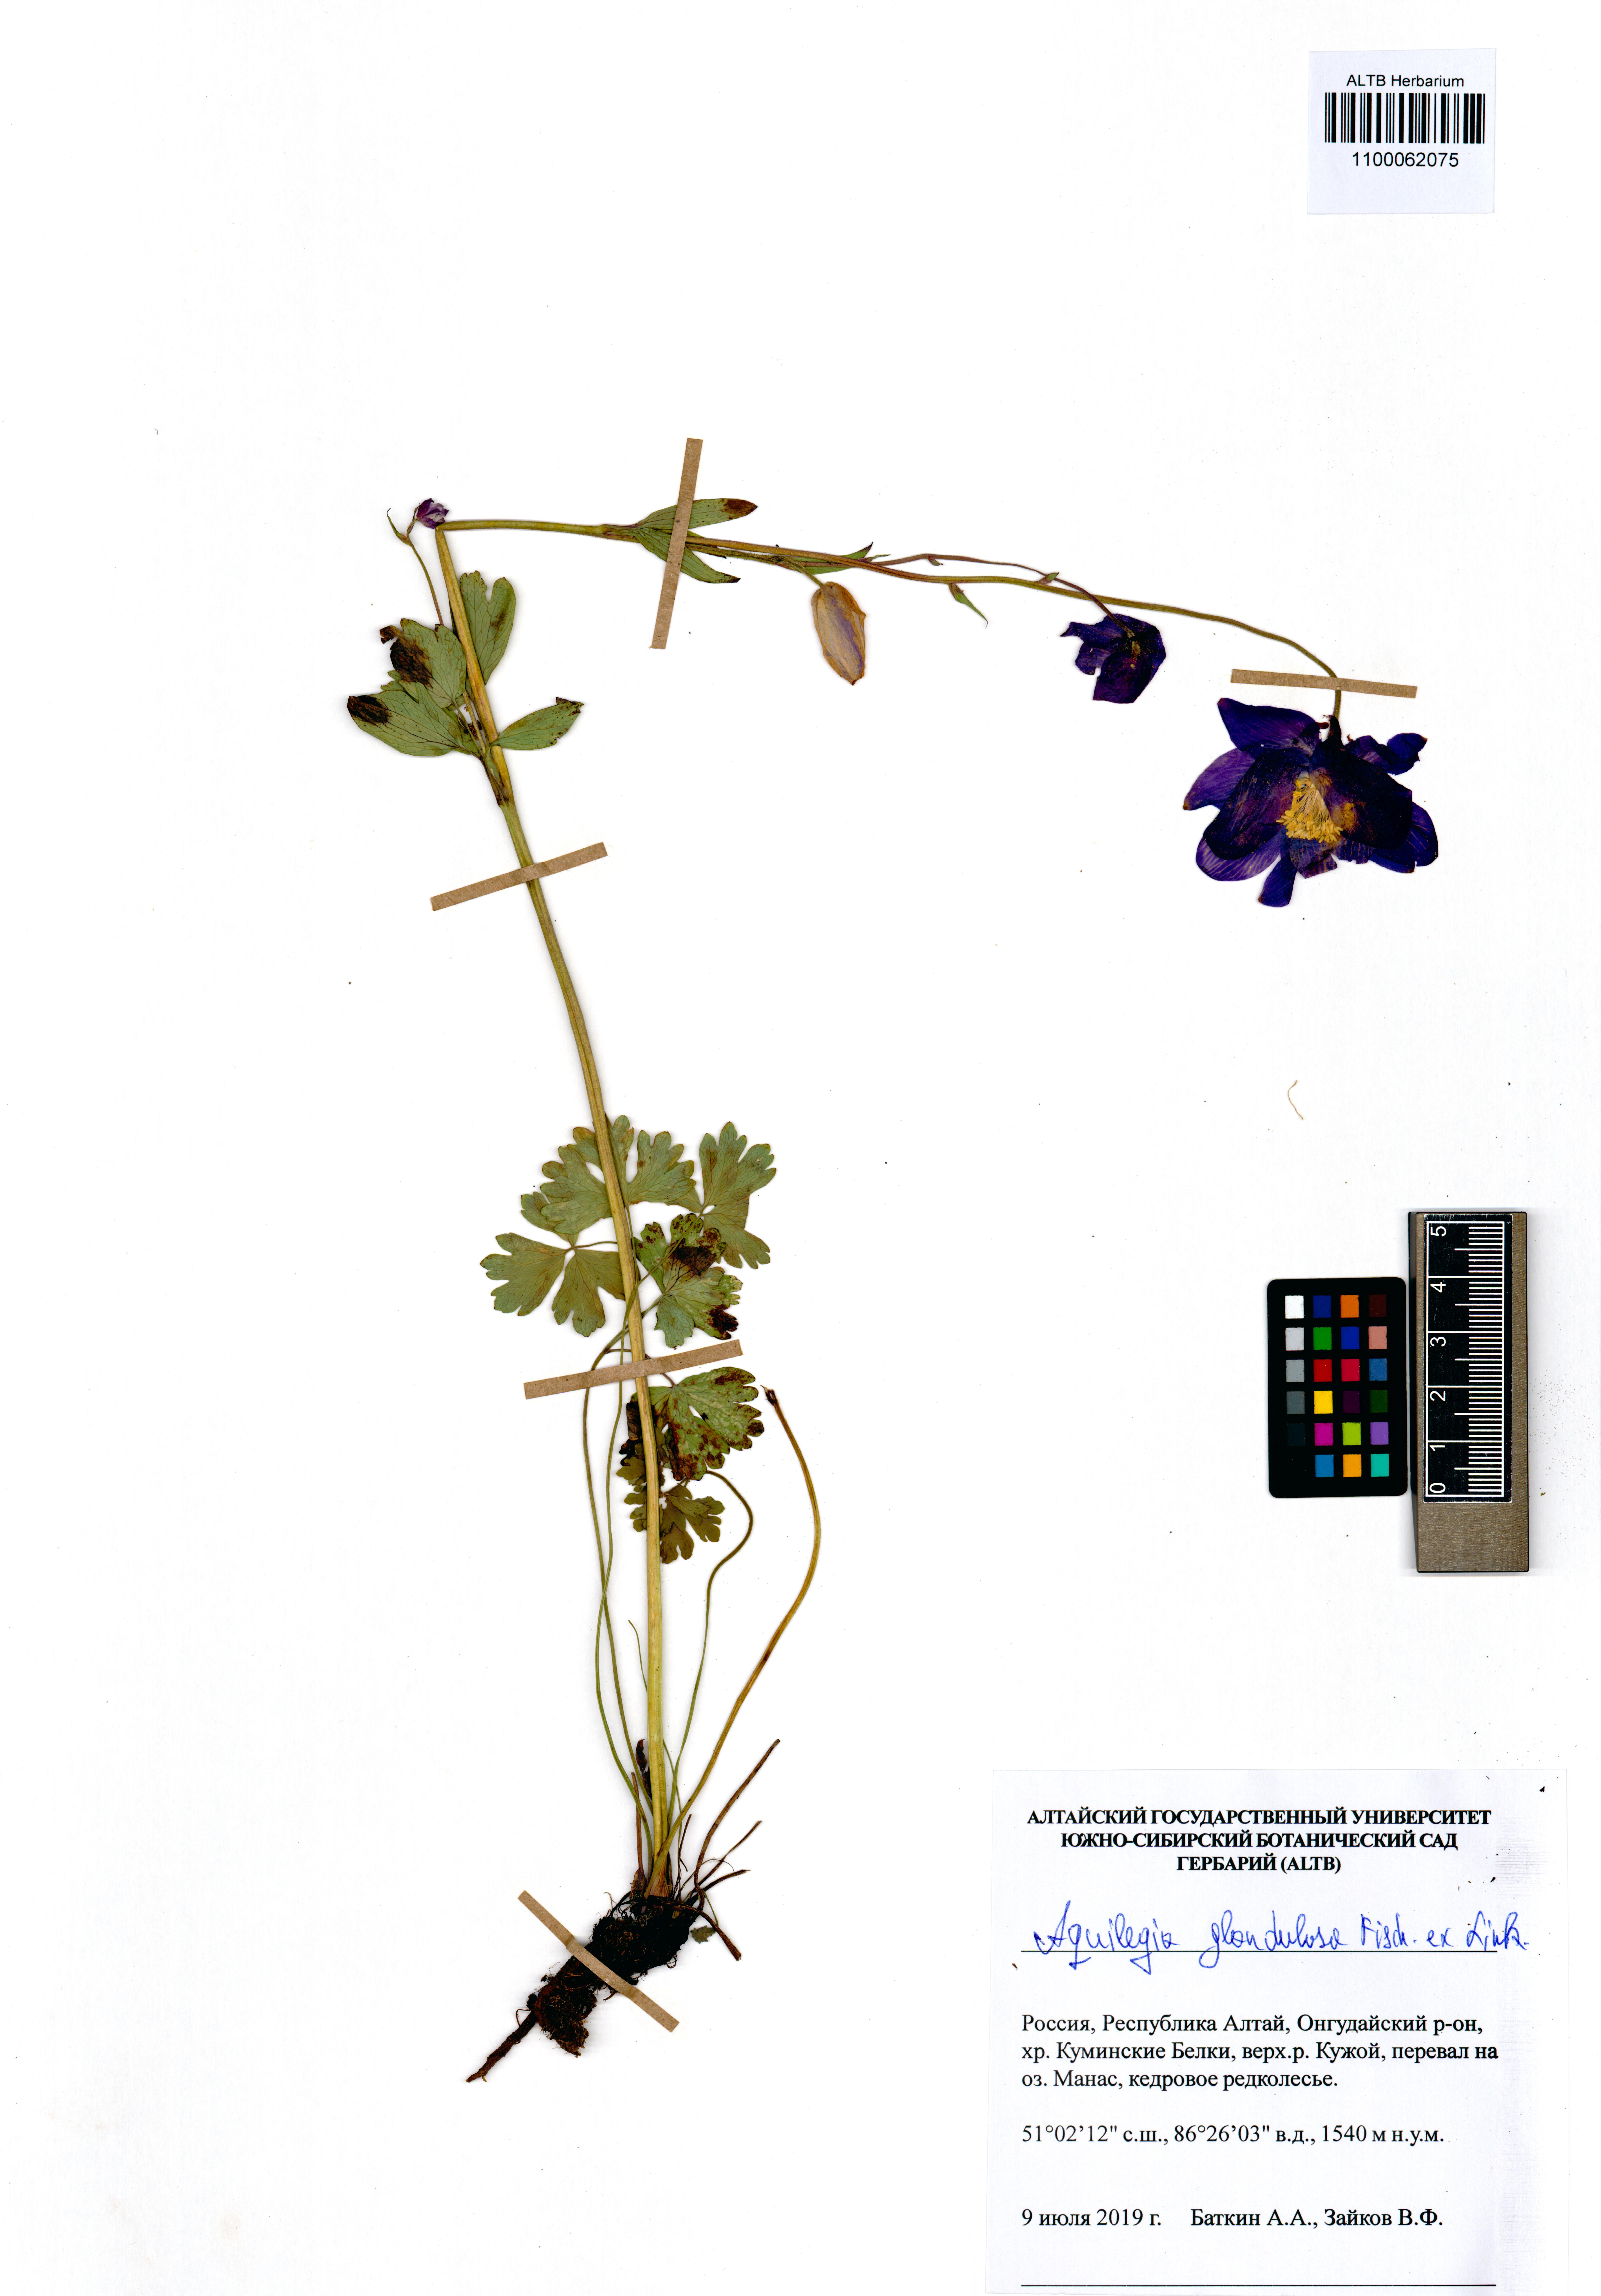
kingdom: Plantae
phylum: Tracheophyta
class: Magnoliopsida
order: Ranunculales
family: Ranunculaceae
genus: Aquilegia
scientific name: Aquilegia glandulosa
